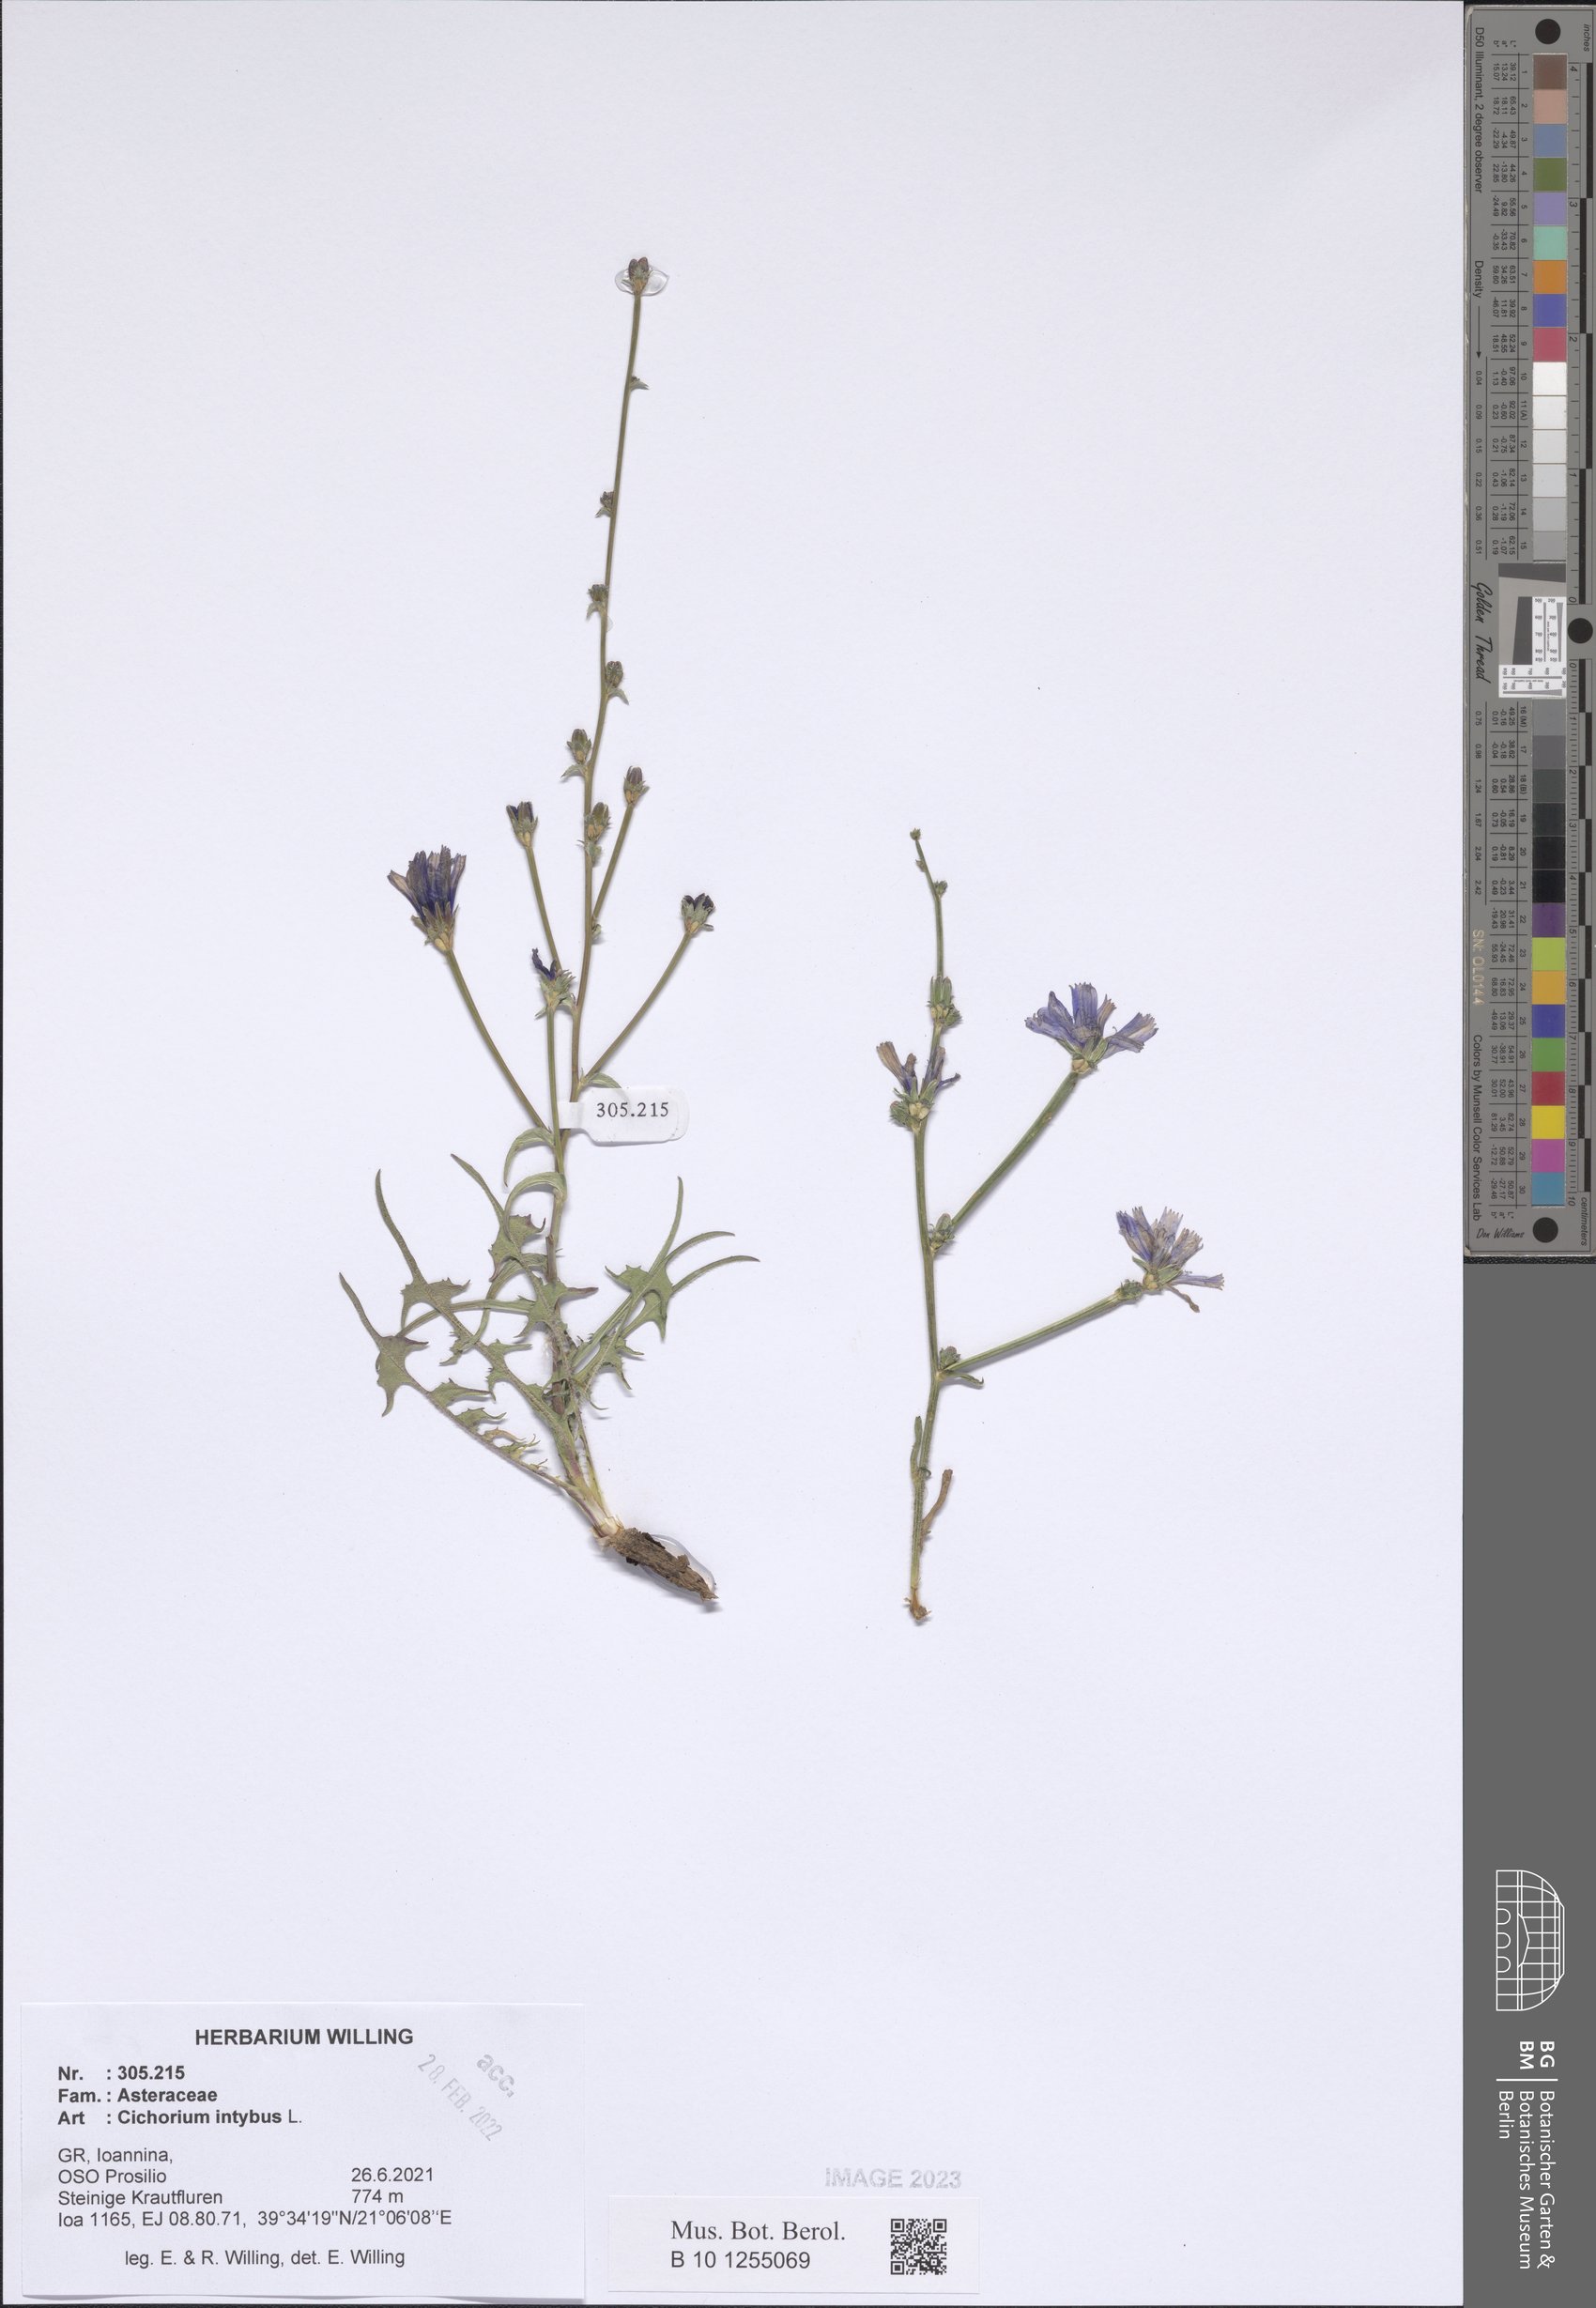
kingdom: Plantae
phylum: Tracheophyta
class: Magnoliopsida
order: Asterales
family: Asteraceae
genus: Cichorium
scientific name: Cichorium intybus
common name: Chicory
